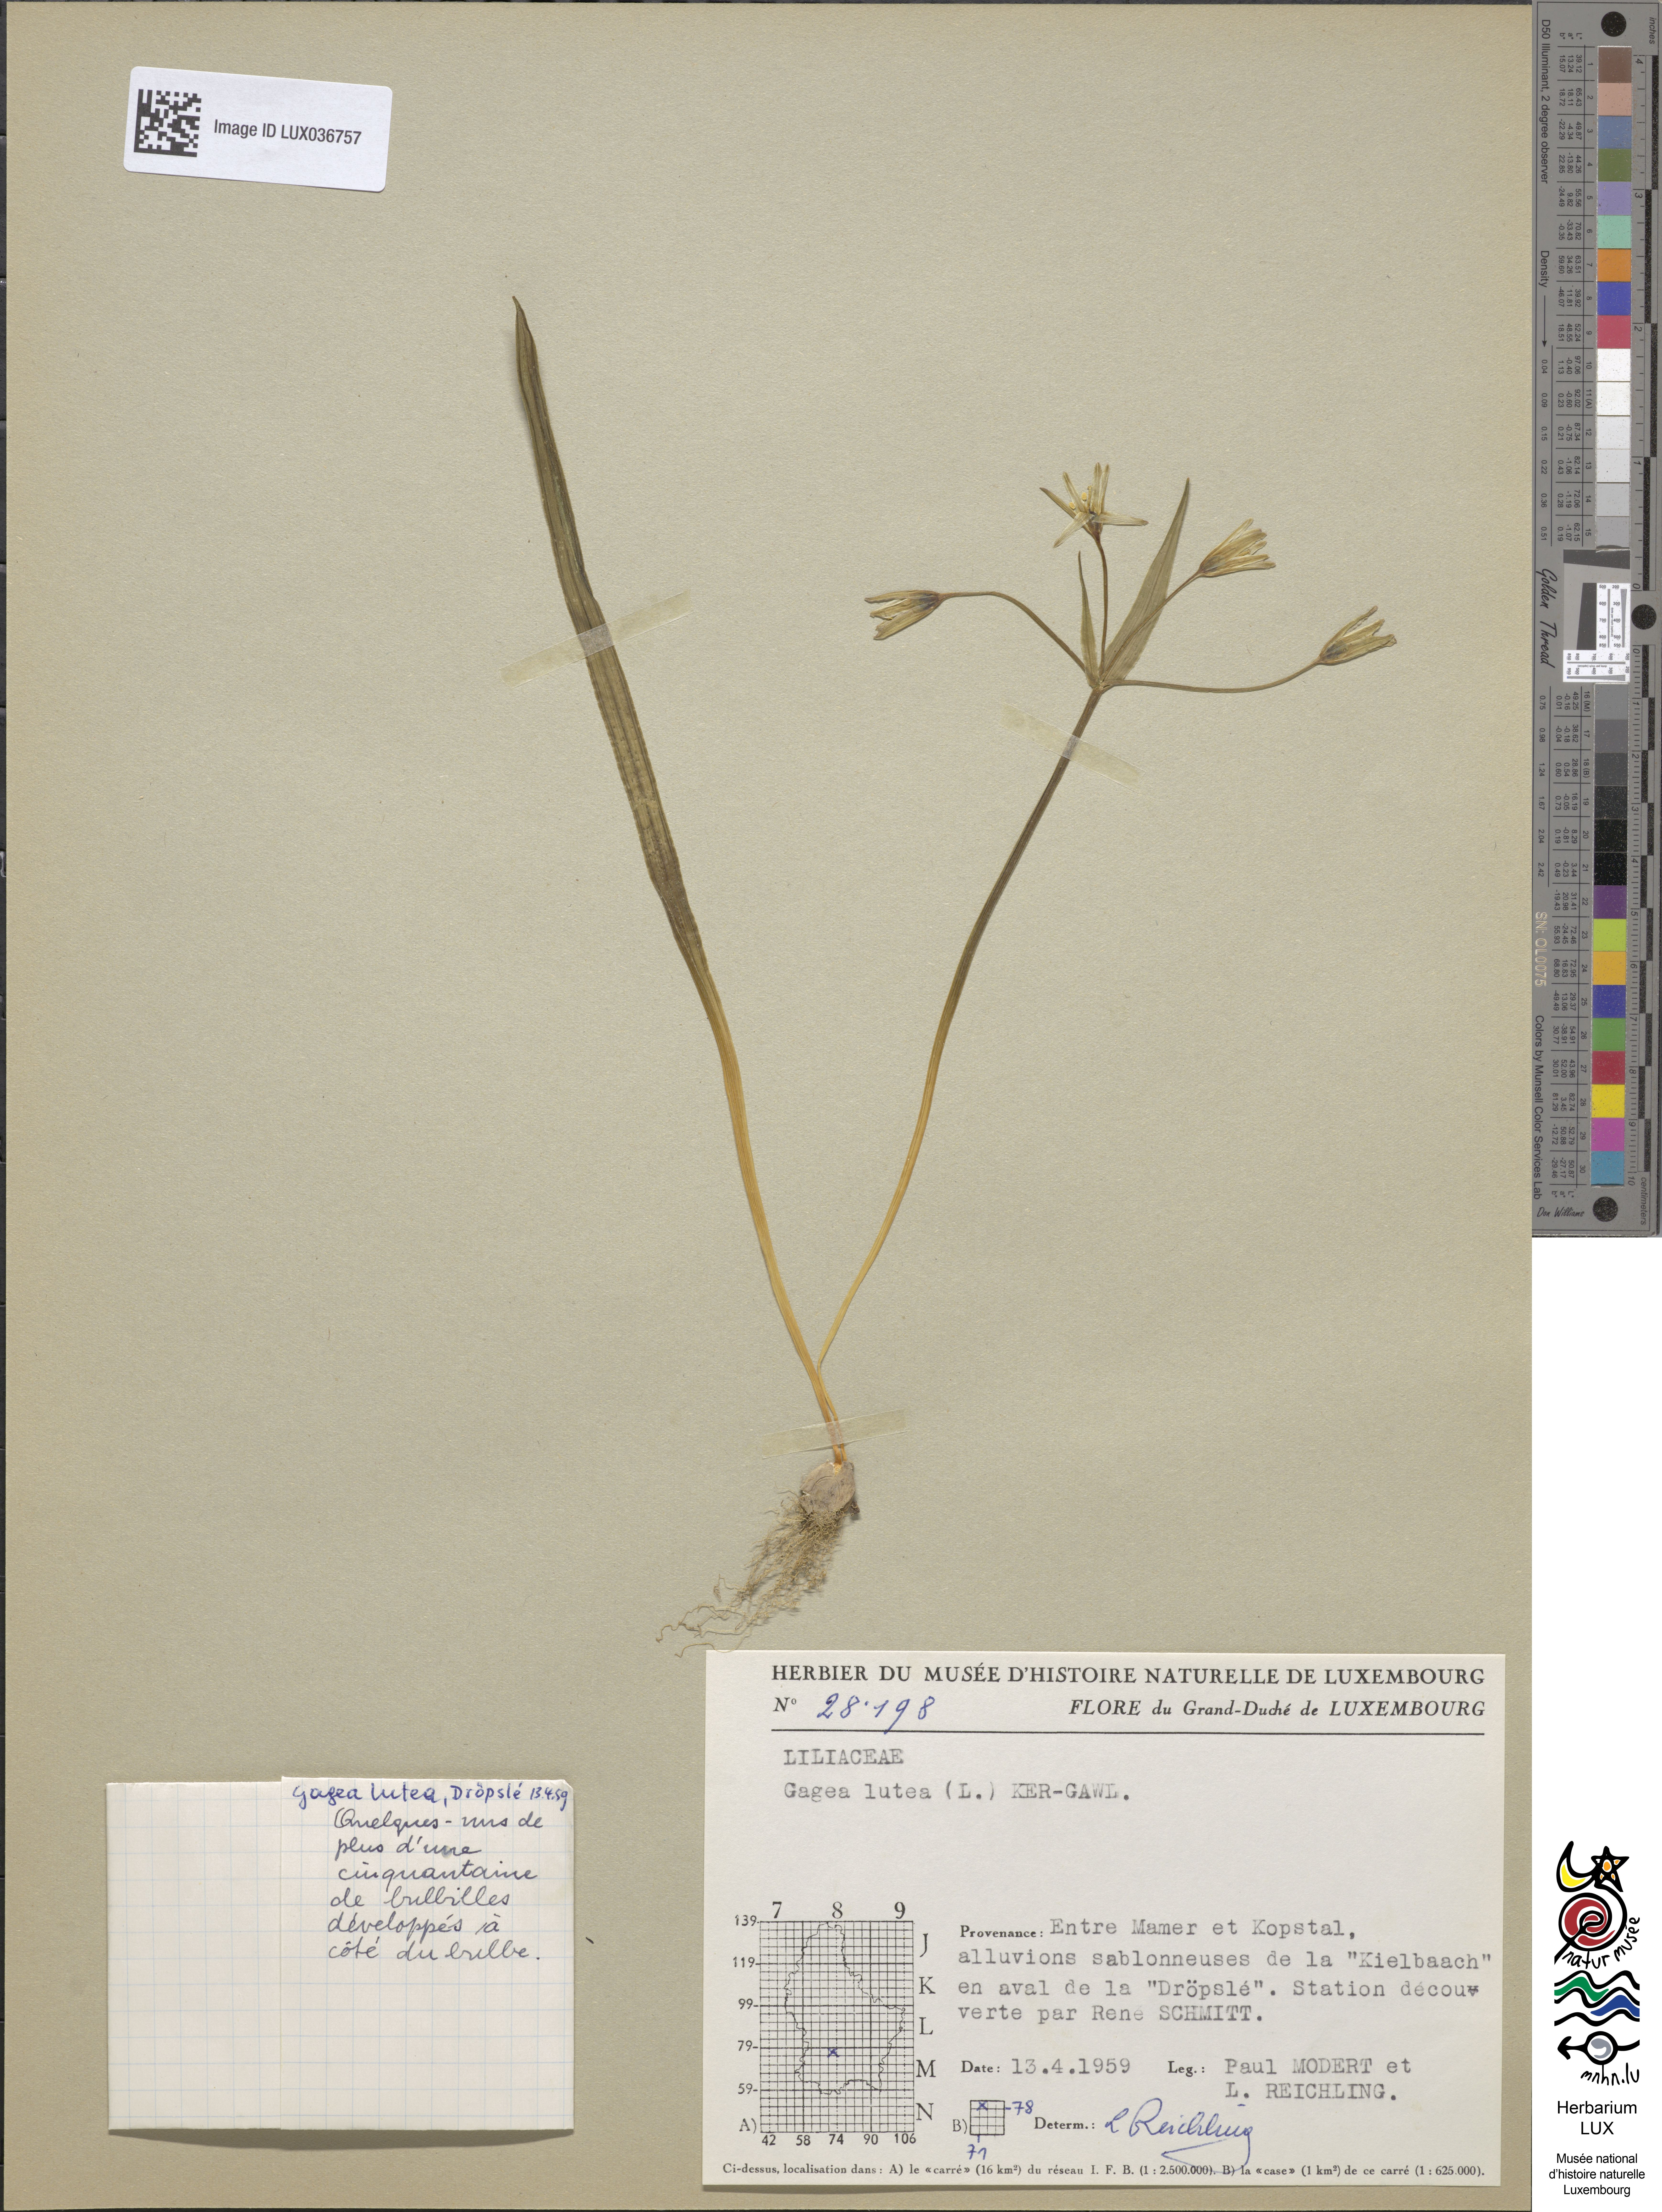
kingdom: Plantae
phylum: Tracheophyta
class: Liliopsida
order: Liliales
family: Liliaceae
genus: Gagea
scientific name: Gagea lutea
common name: Yellow star-of-bethlehem
